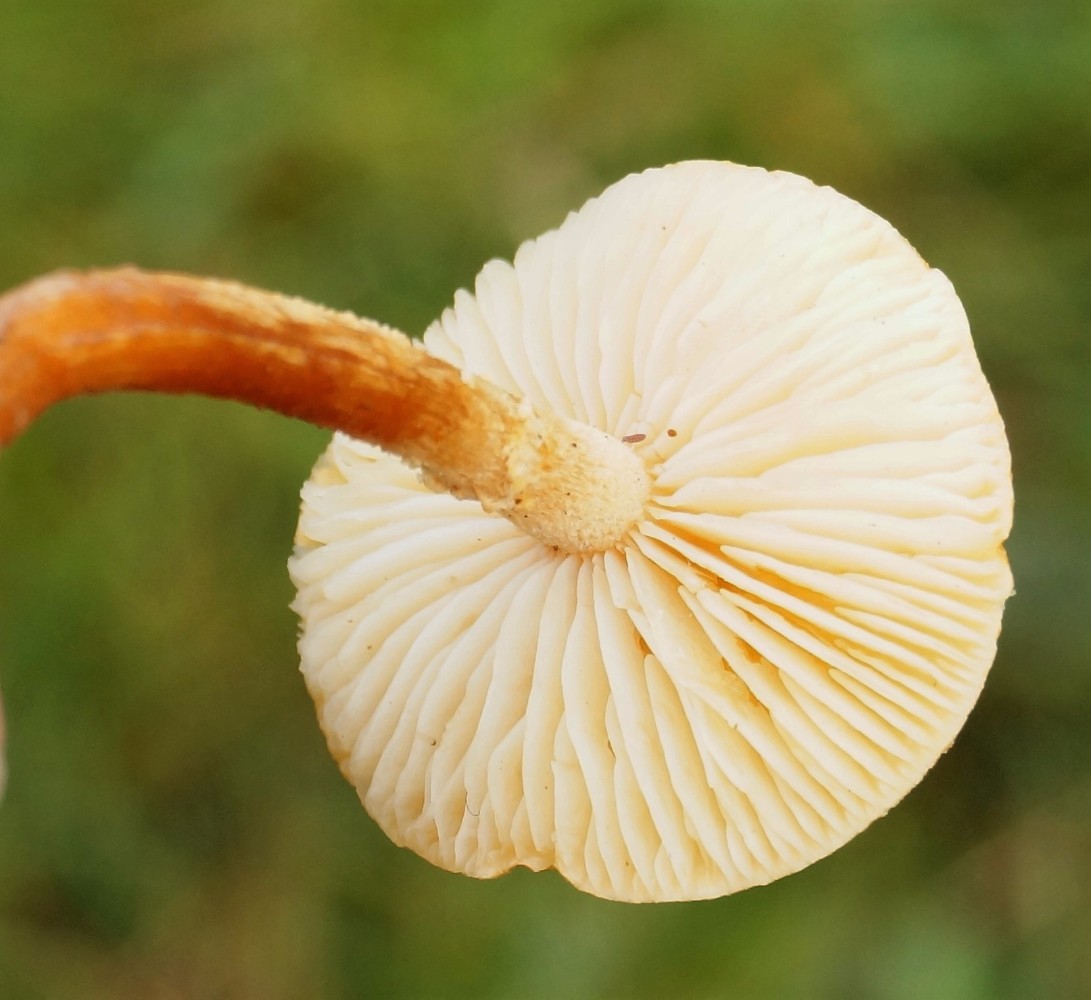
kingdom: Fungi
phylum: Basidiomycota
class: Agaricomycetes
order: Agaricales
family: Tricholomataceae
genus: Cystoderma
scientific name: Cystoderma amianthinum
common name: okkergul grynhat
